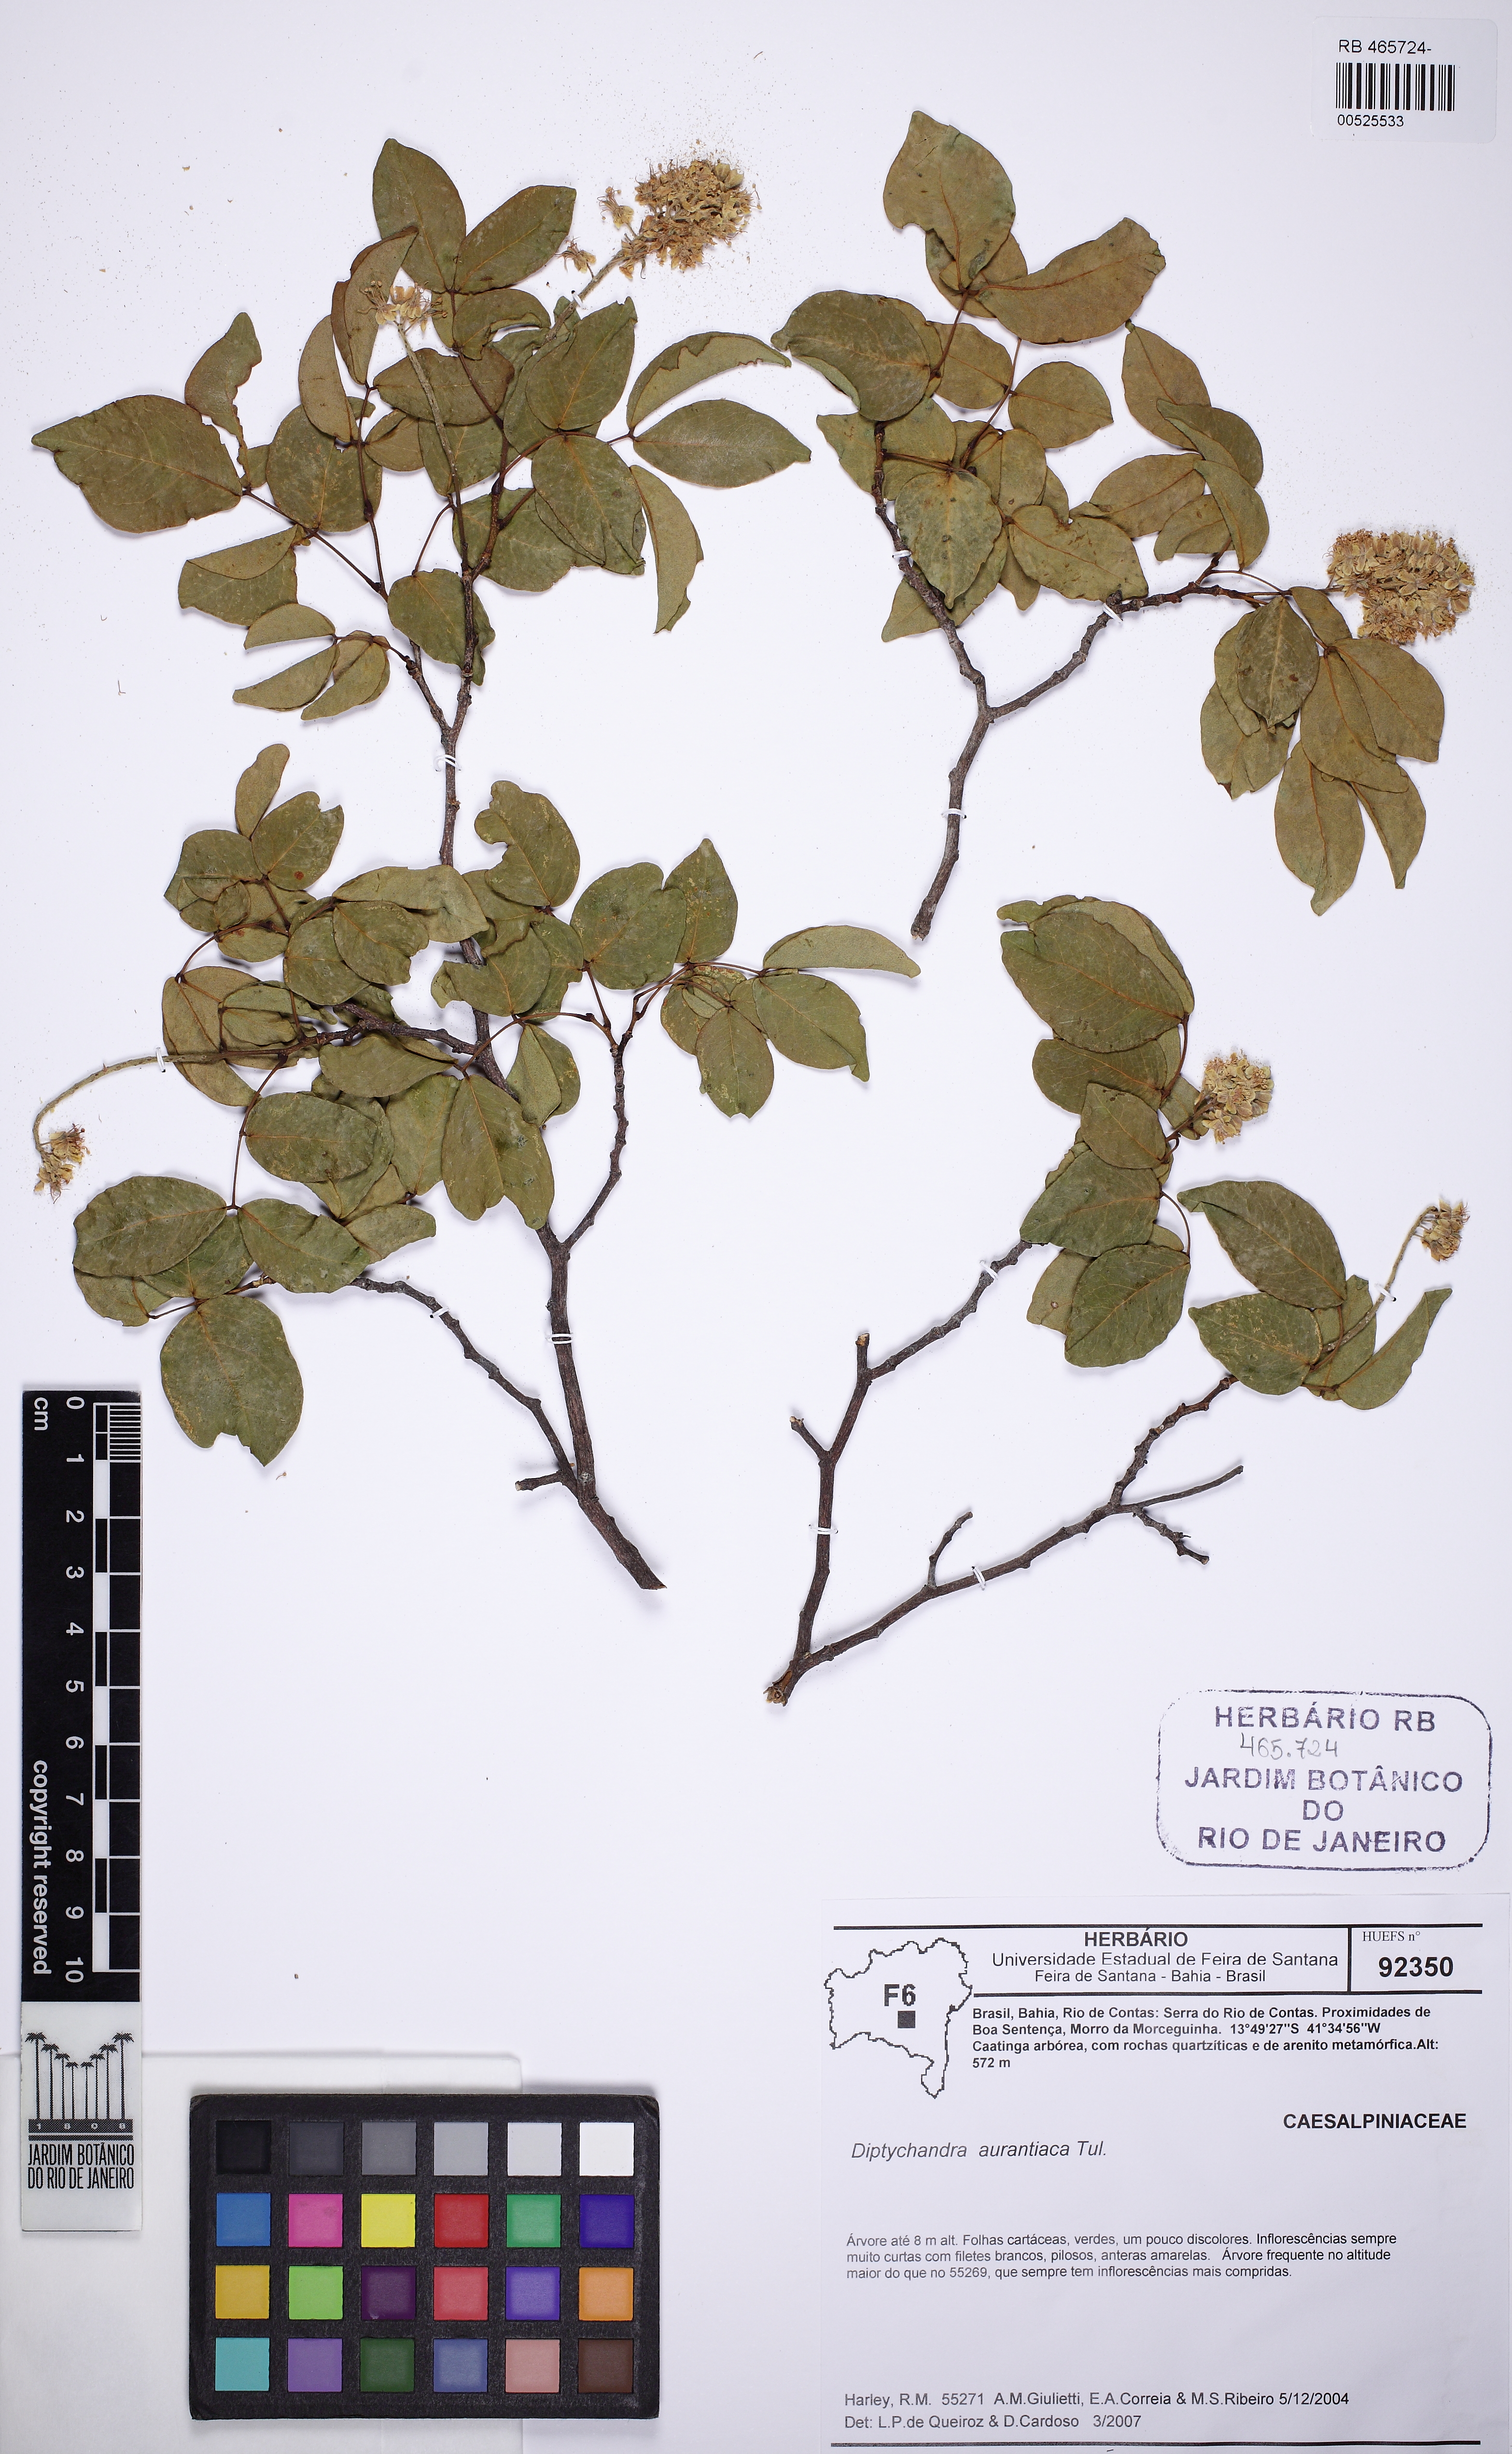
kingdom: Plantae
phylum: Tracheophyta
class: Magnoliopsida
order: Fabales
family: Fabaceae
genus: Diptychandra
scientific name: Diptychandra aurantiaca
